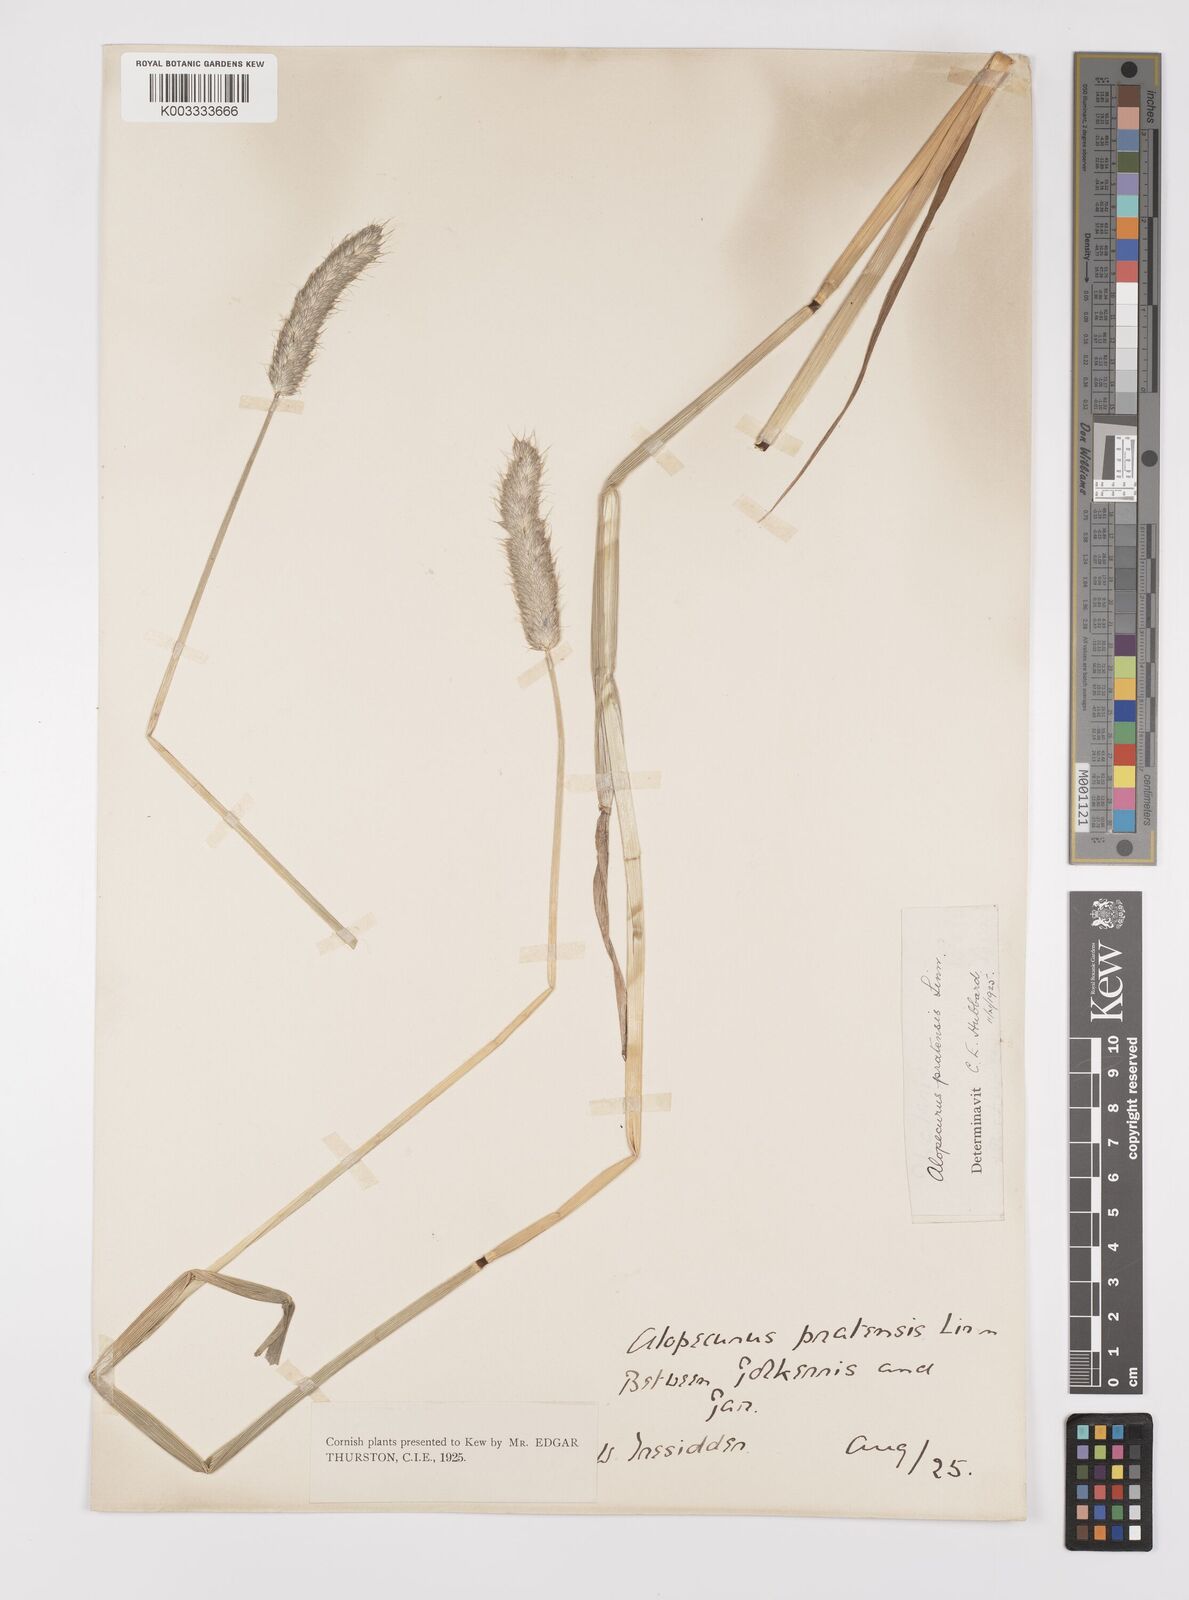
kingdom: Plantae
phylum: Tracheophyta
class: Liliopsida
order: Poales
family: Poaceae
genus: Alopecurus
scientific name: Alopecurus pratensis
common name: Meadow foxtail
